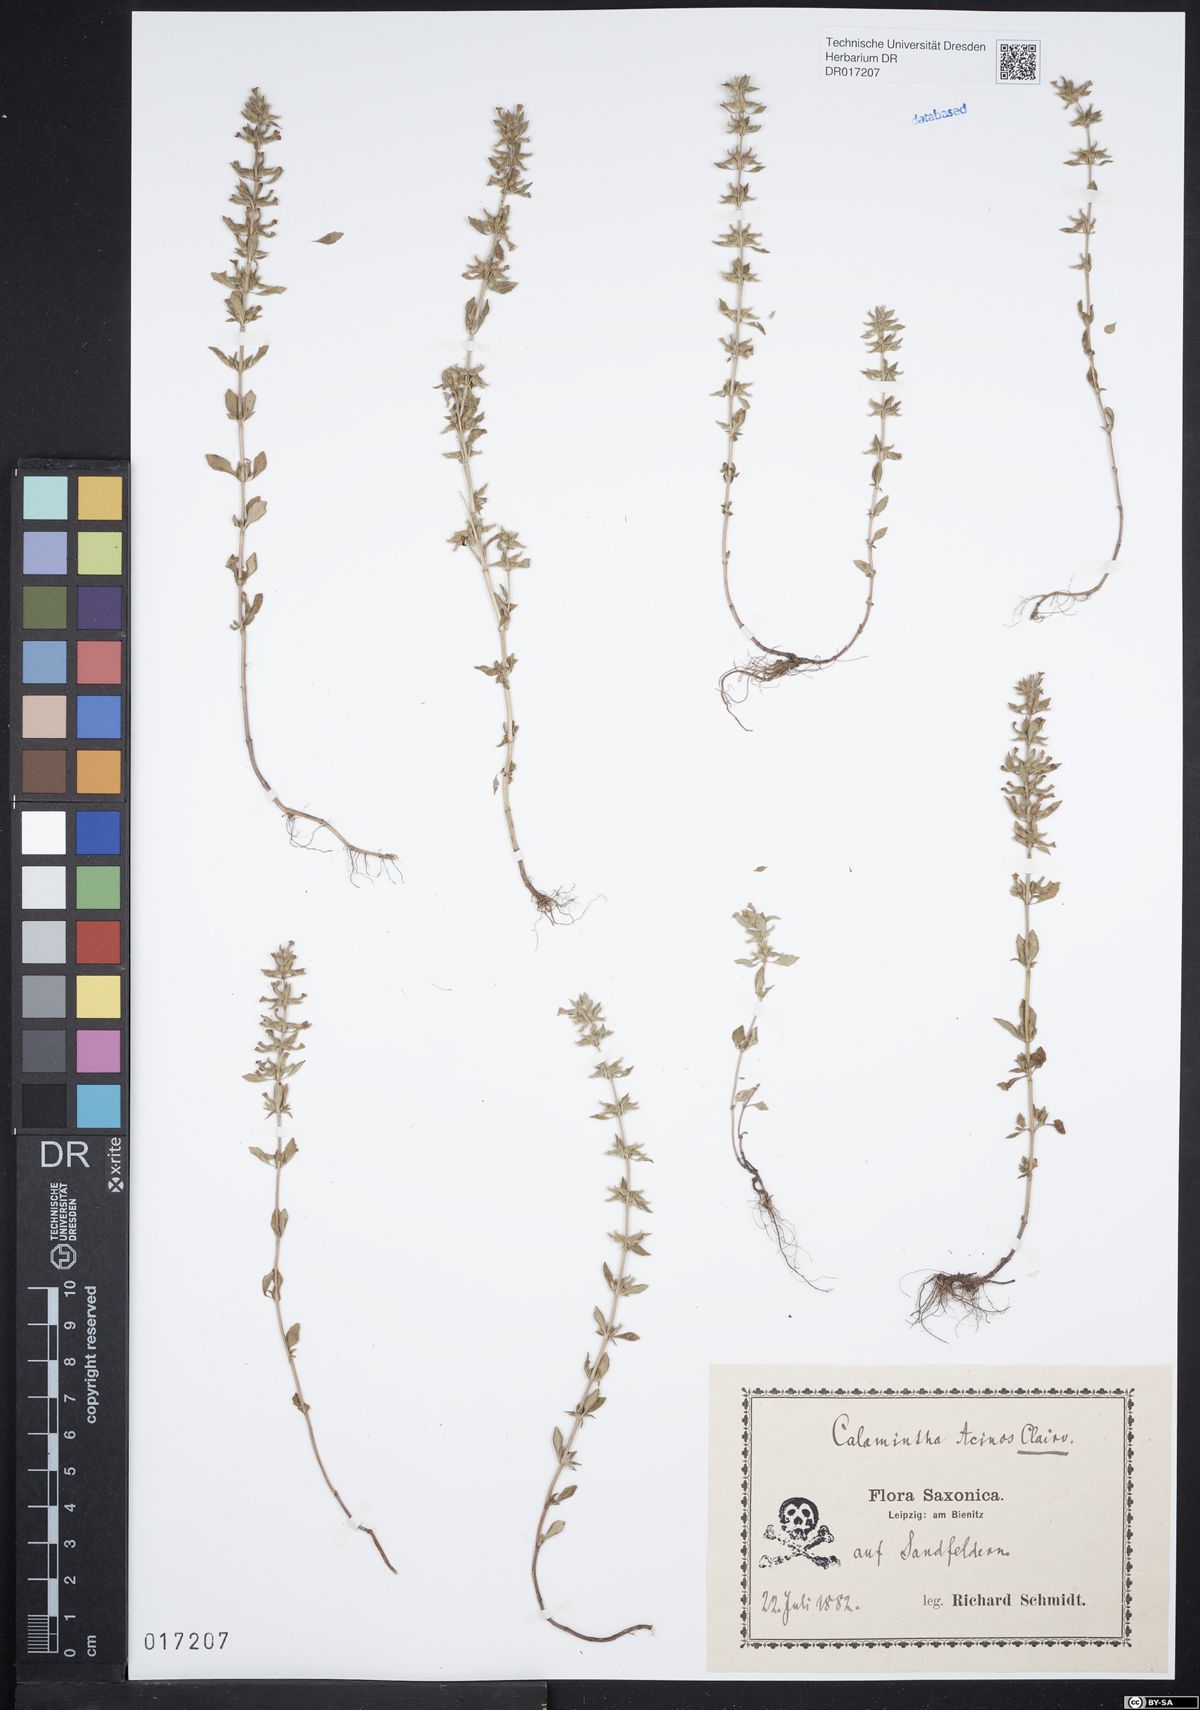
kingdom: Plantae
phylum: Tracheophyta
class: Magnoliopsida
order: Lamiales
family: Lamiaceae
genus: Clinopodium
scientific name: Clinopodium acinos
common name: Basil thyme
